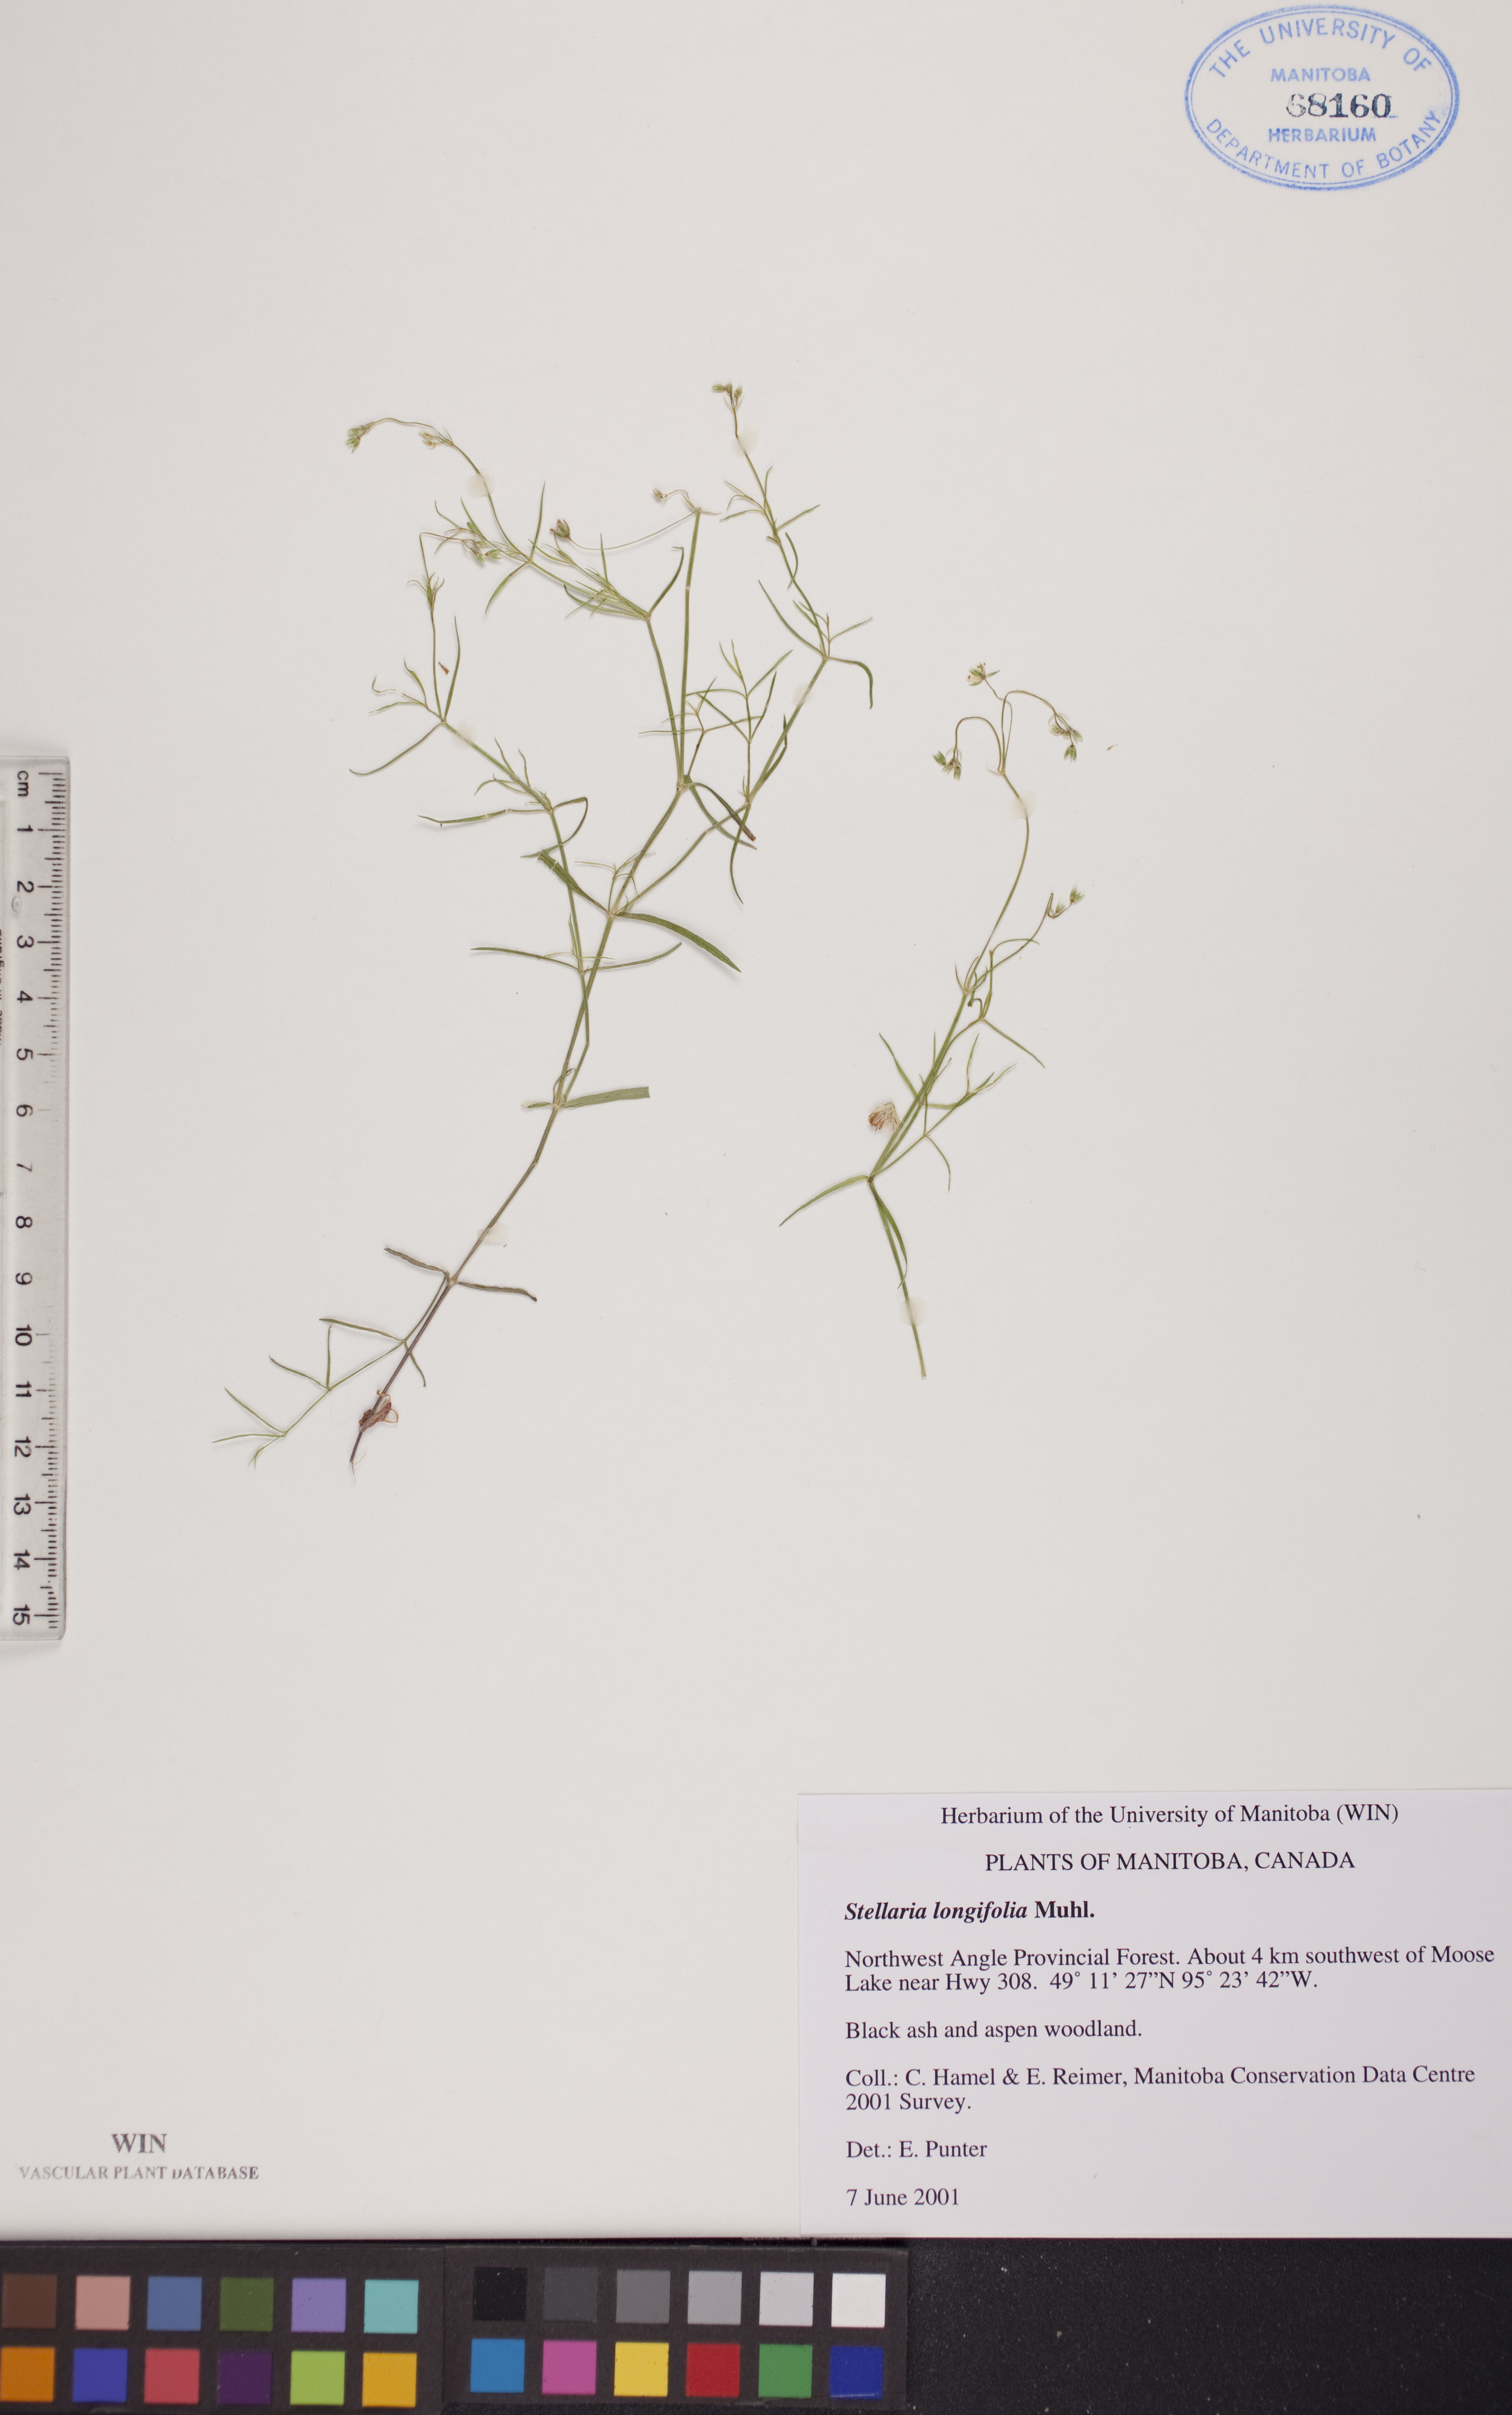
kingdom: Plantae
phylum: Tracheophyta
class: Magnoliopsida
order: Caryophyllales
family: Caryophyllaceae
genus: Stellaria
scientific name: Stellaria longifolia
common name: Long-leaved chickweed
